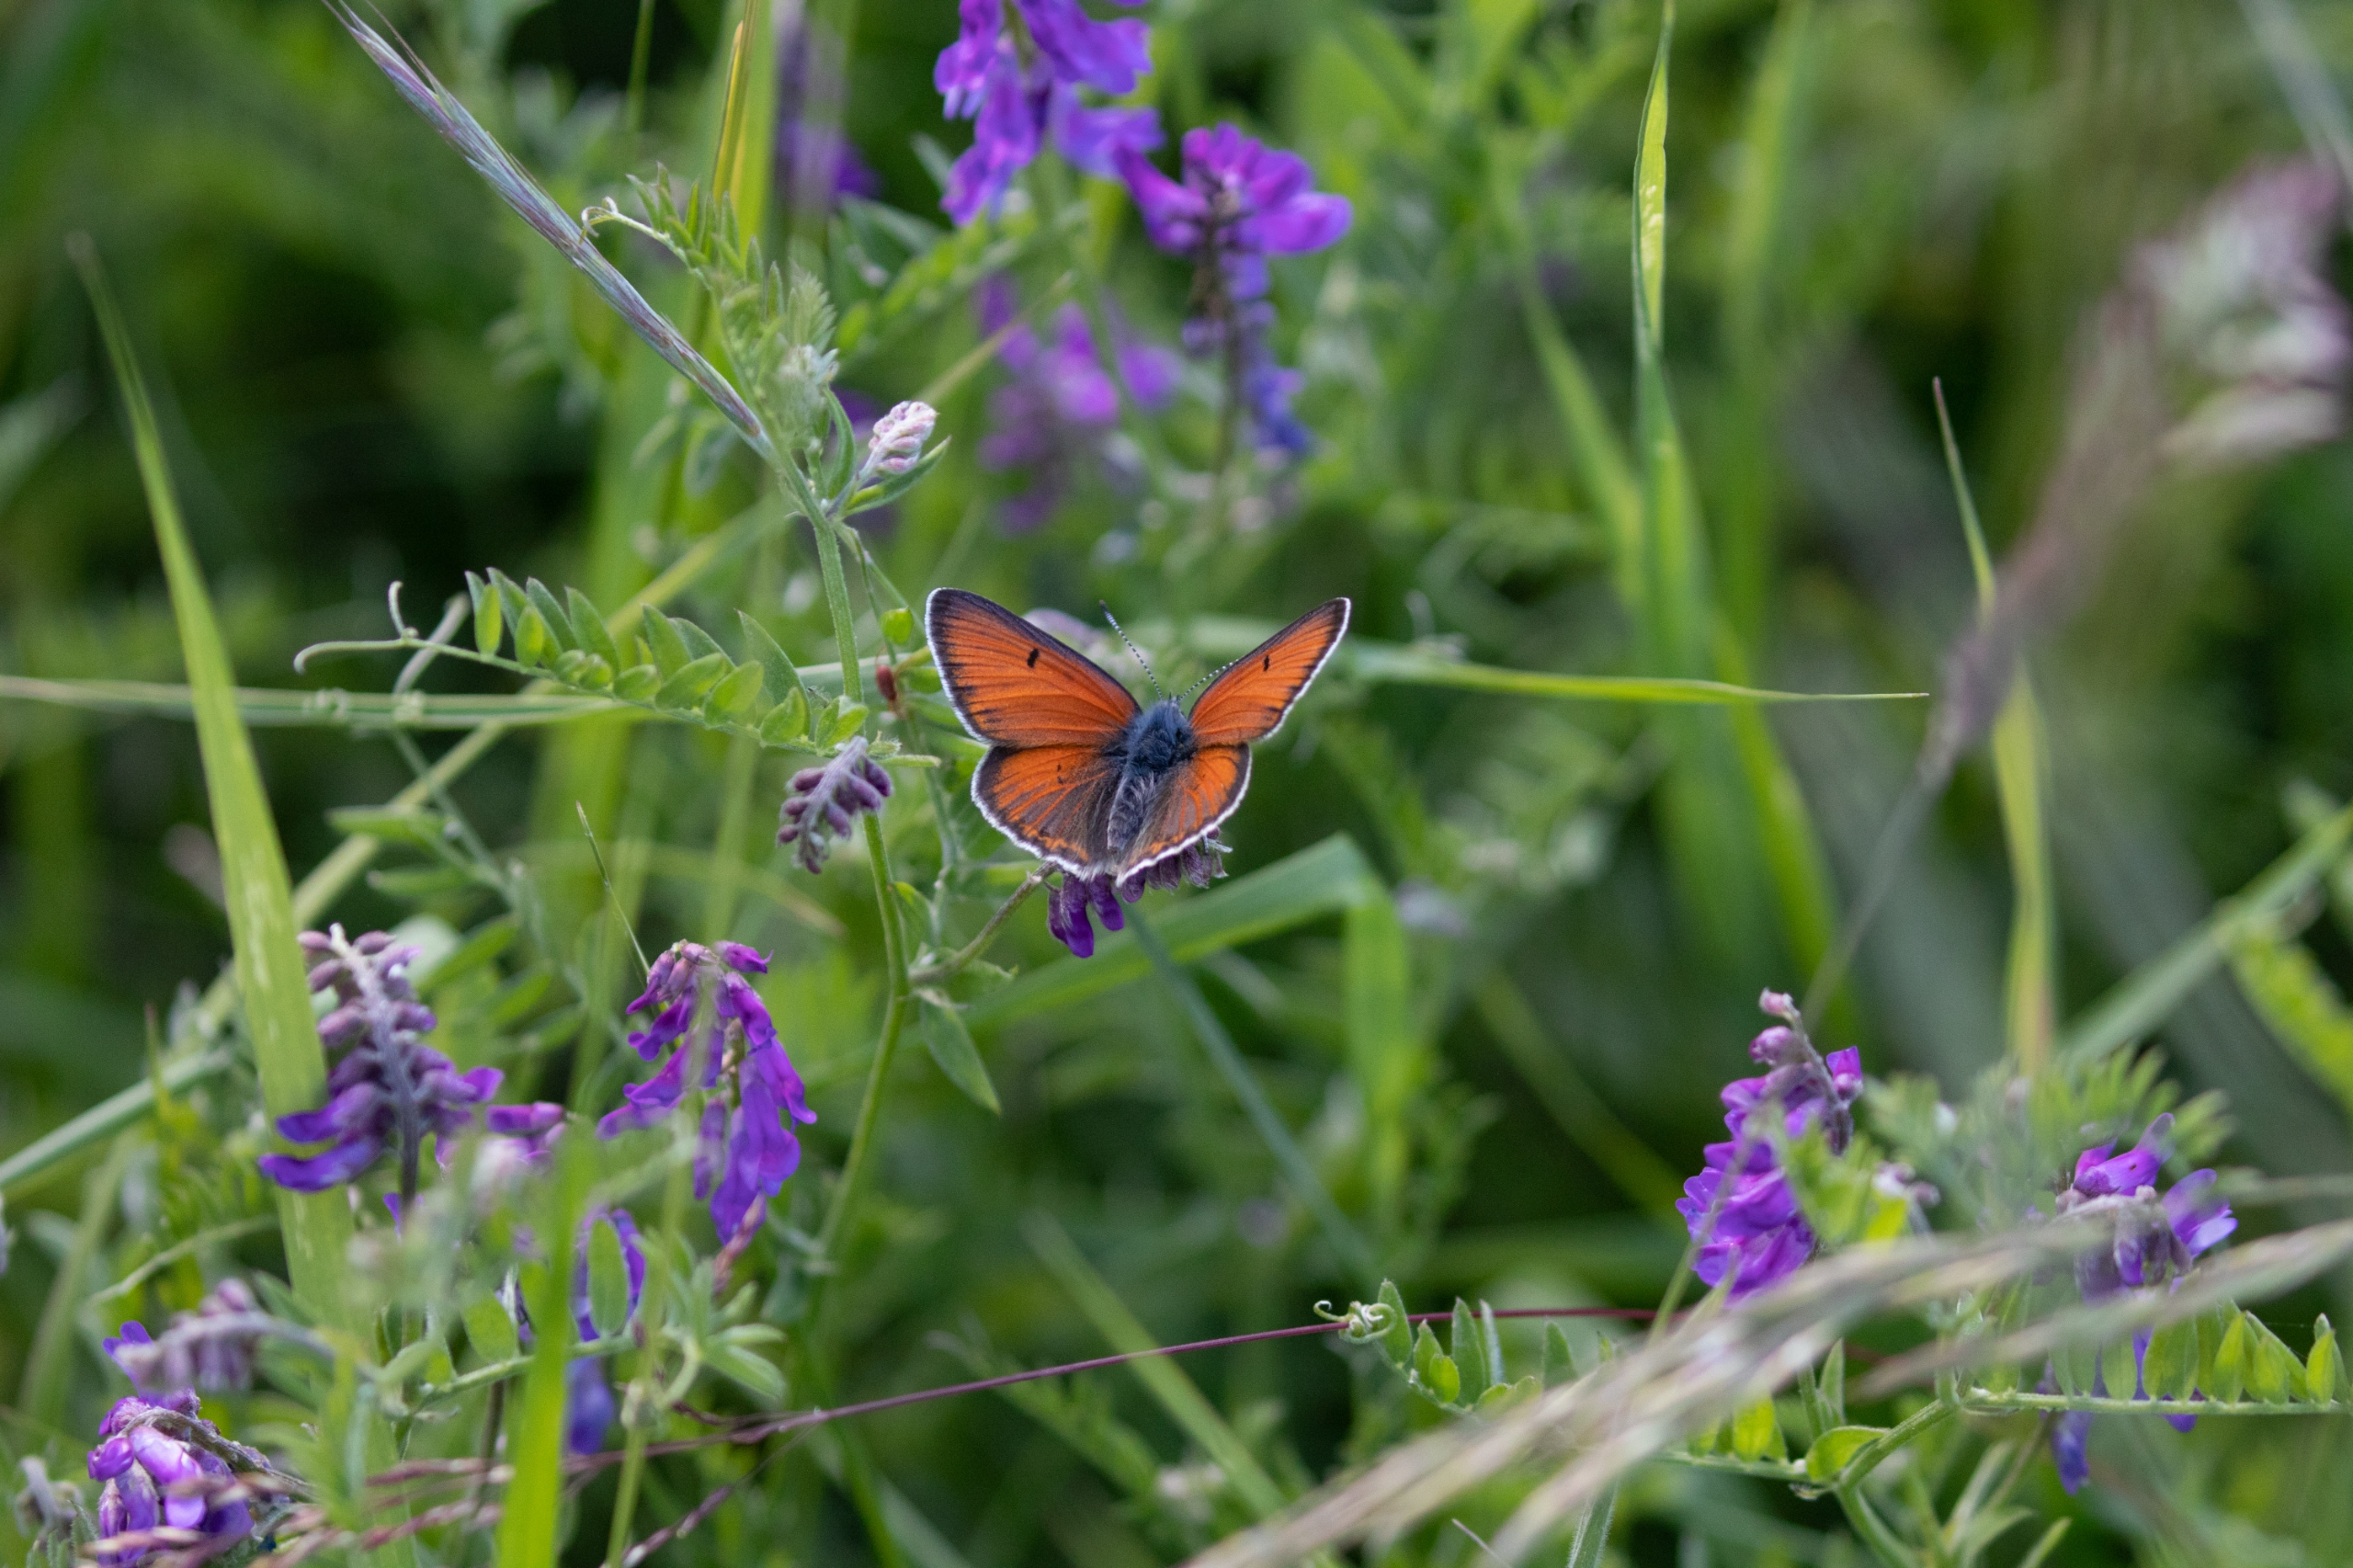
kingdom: Animalia
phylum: Arthropoda
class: Insecta
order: Lepidoptera
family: Lycaenidae
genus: Palaeochrysophanus
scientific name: Palaeochrysophanus hippothoe
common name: Violetrandet ildfugl
